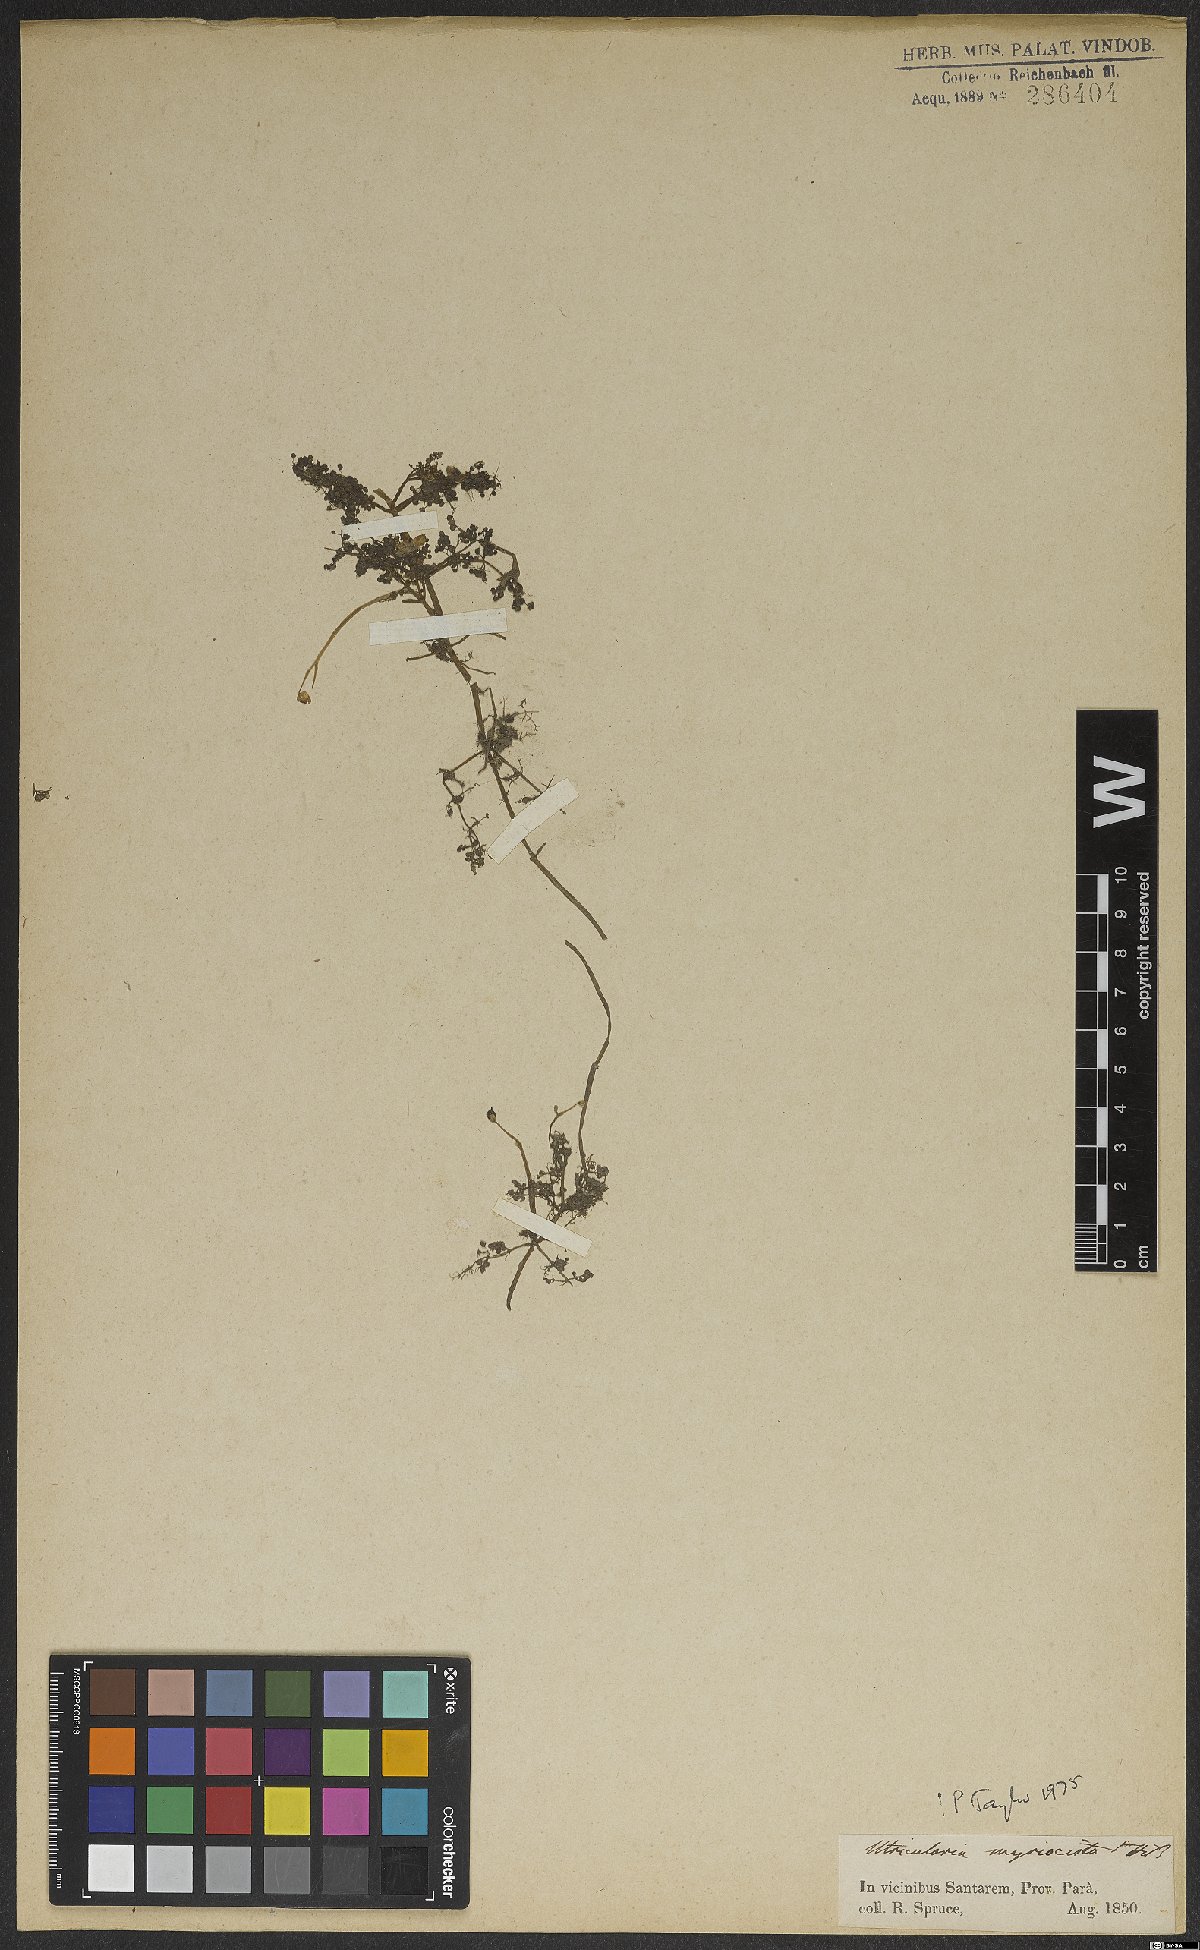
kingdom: Plantae
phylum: Tracheophyta
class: Magnoliopsida
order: Lamiales
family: Lentibulariaceae
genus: Utricularia
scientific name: Utricularia myriocista
